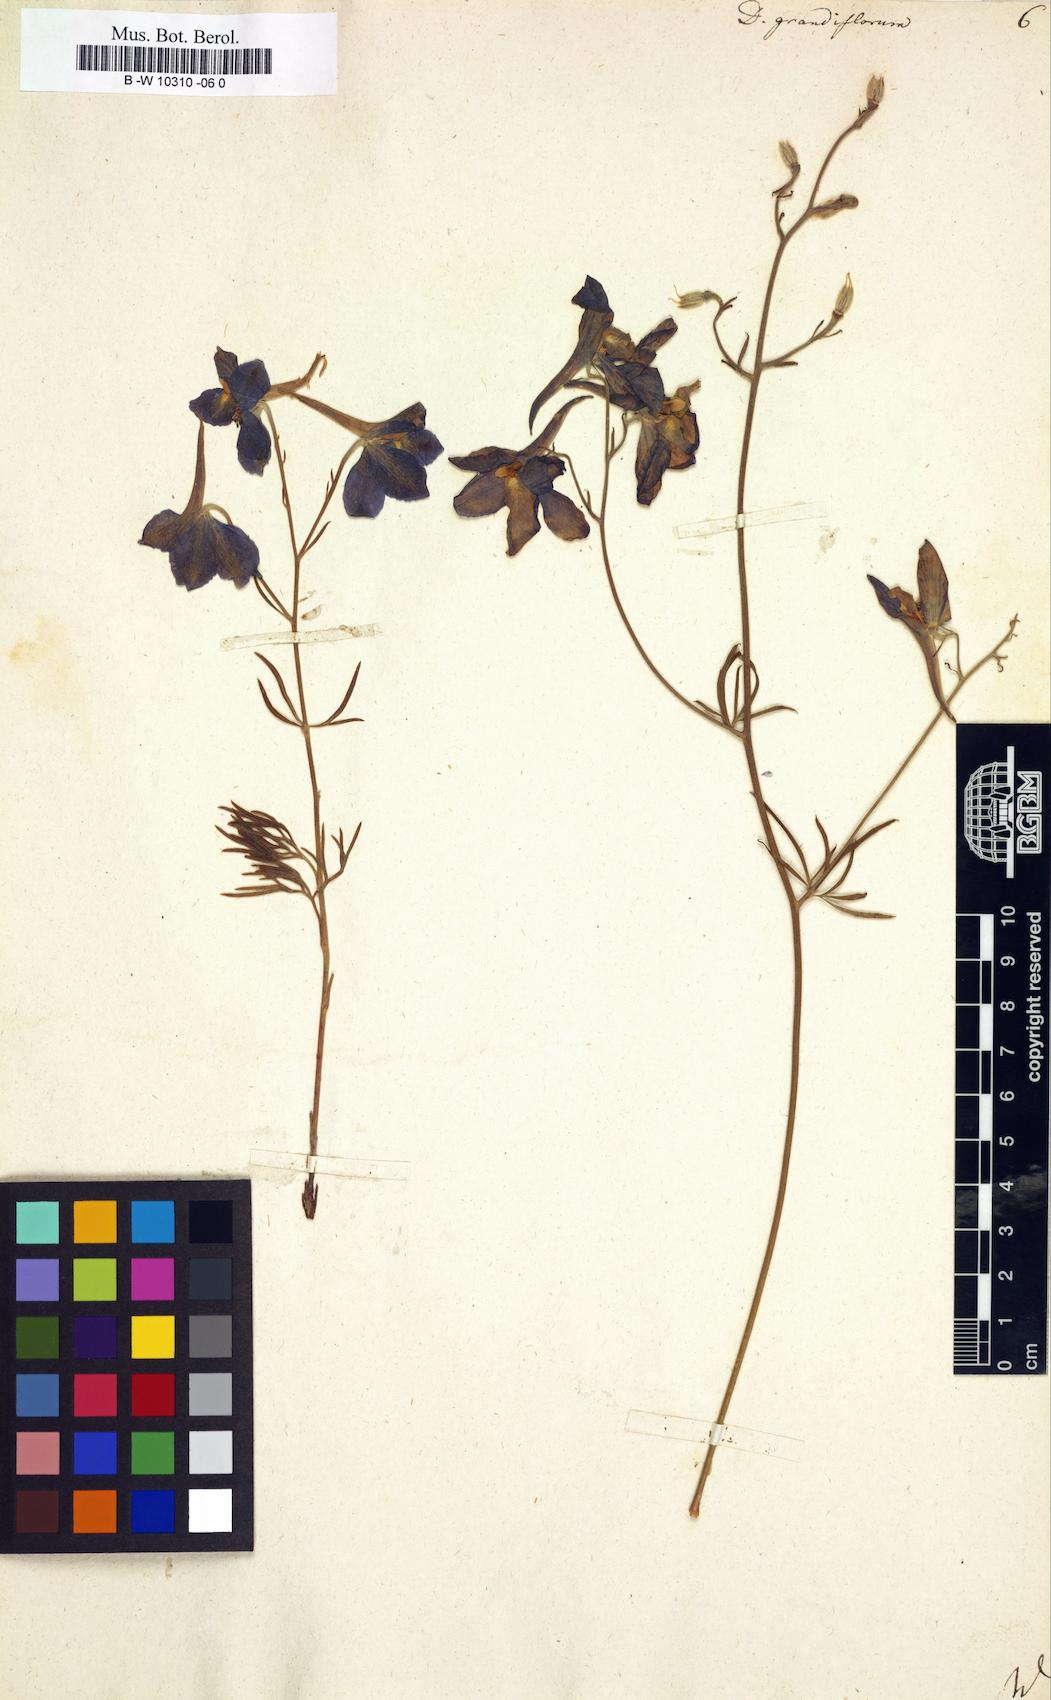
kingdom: Plantae
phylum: Tracheophyta
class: Magnoliopsida
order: Ranunculales
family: Ranunculaceae
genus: Delphinium
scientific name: Delphinium grandiflorum
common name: Siberian larkspur
